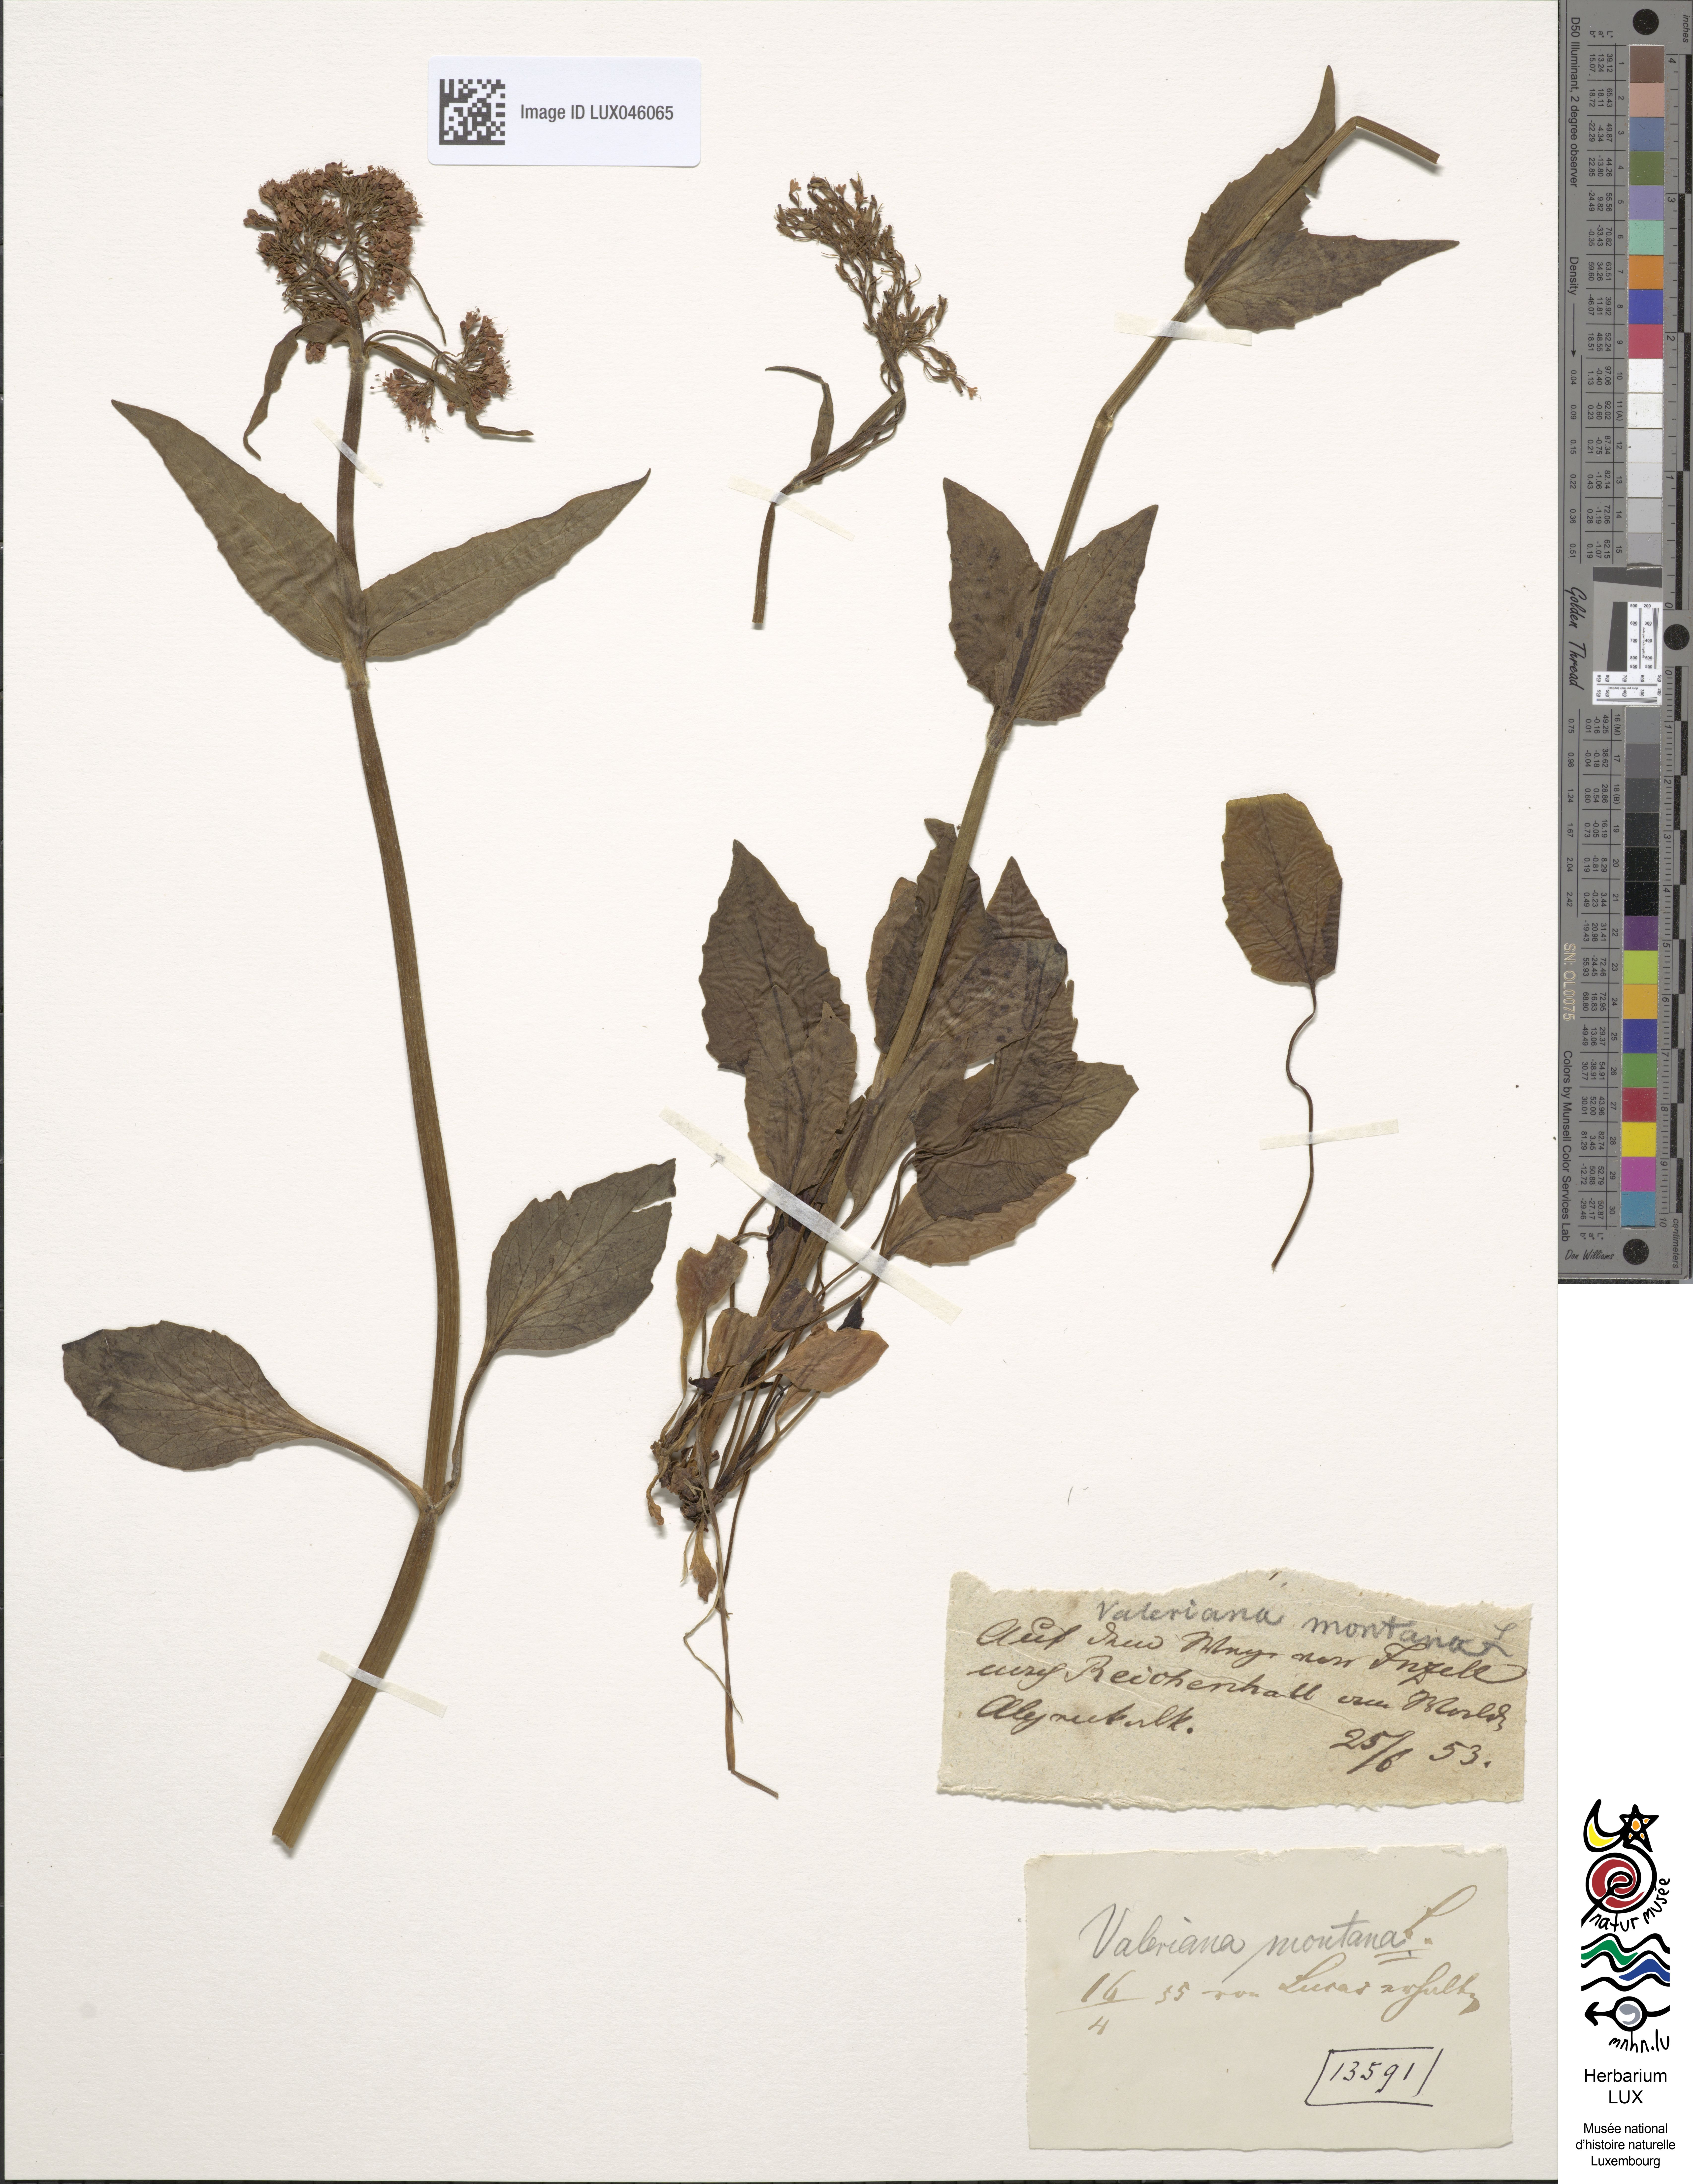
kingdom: Plantae
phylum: Tracheophyta
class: Magnoliopsida
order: Dipsacales
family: Caprifoliaceae
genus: Valeriana
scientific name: Valeriana montana
